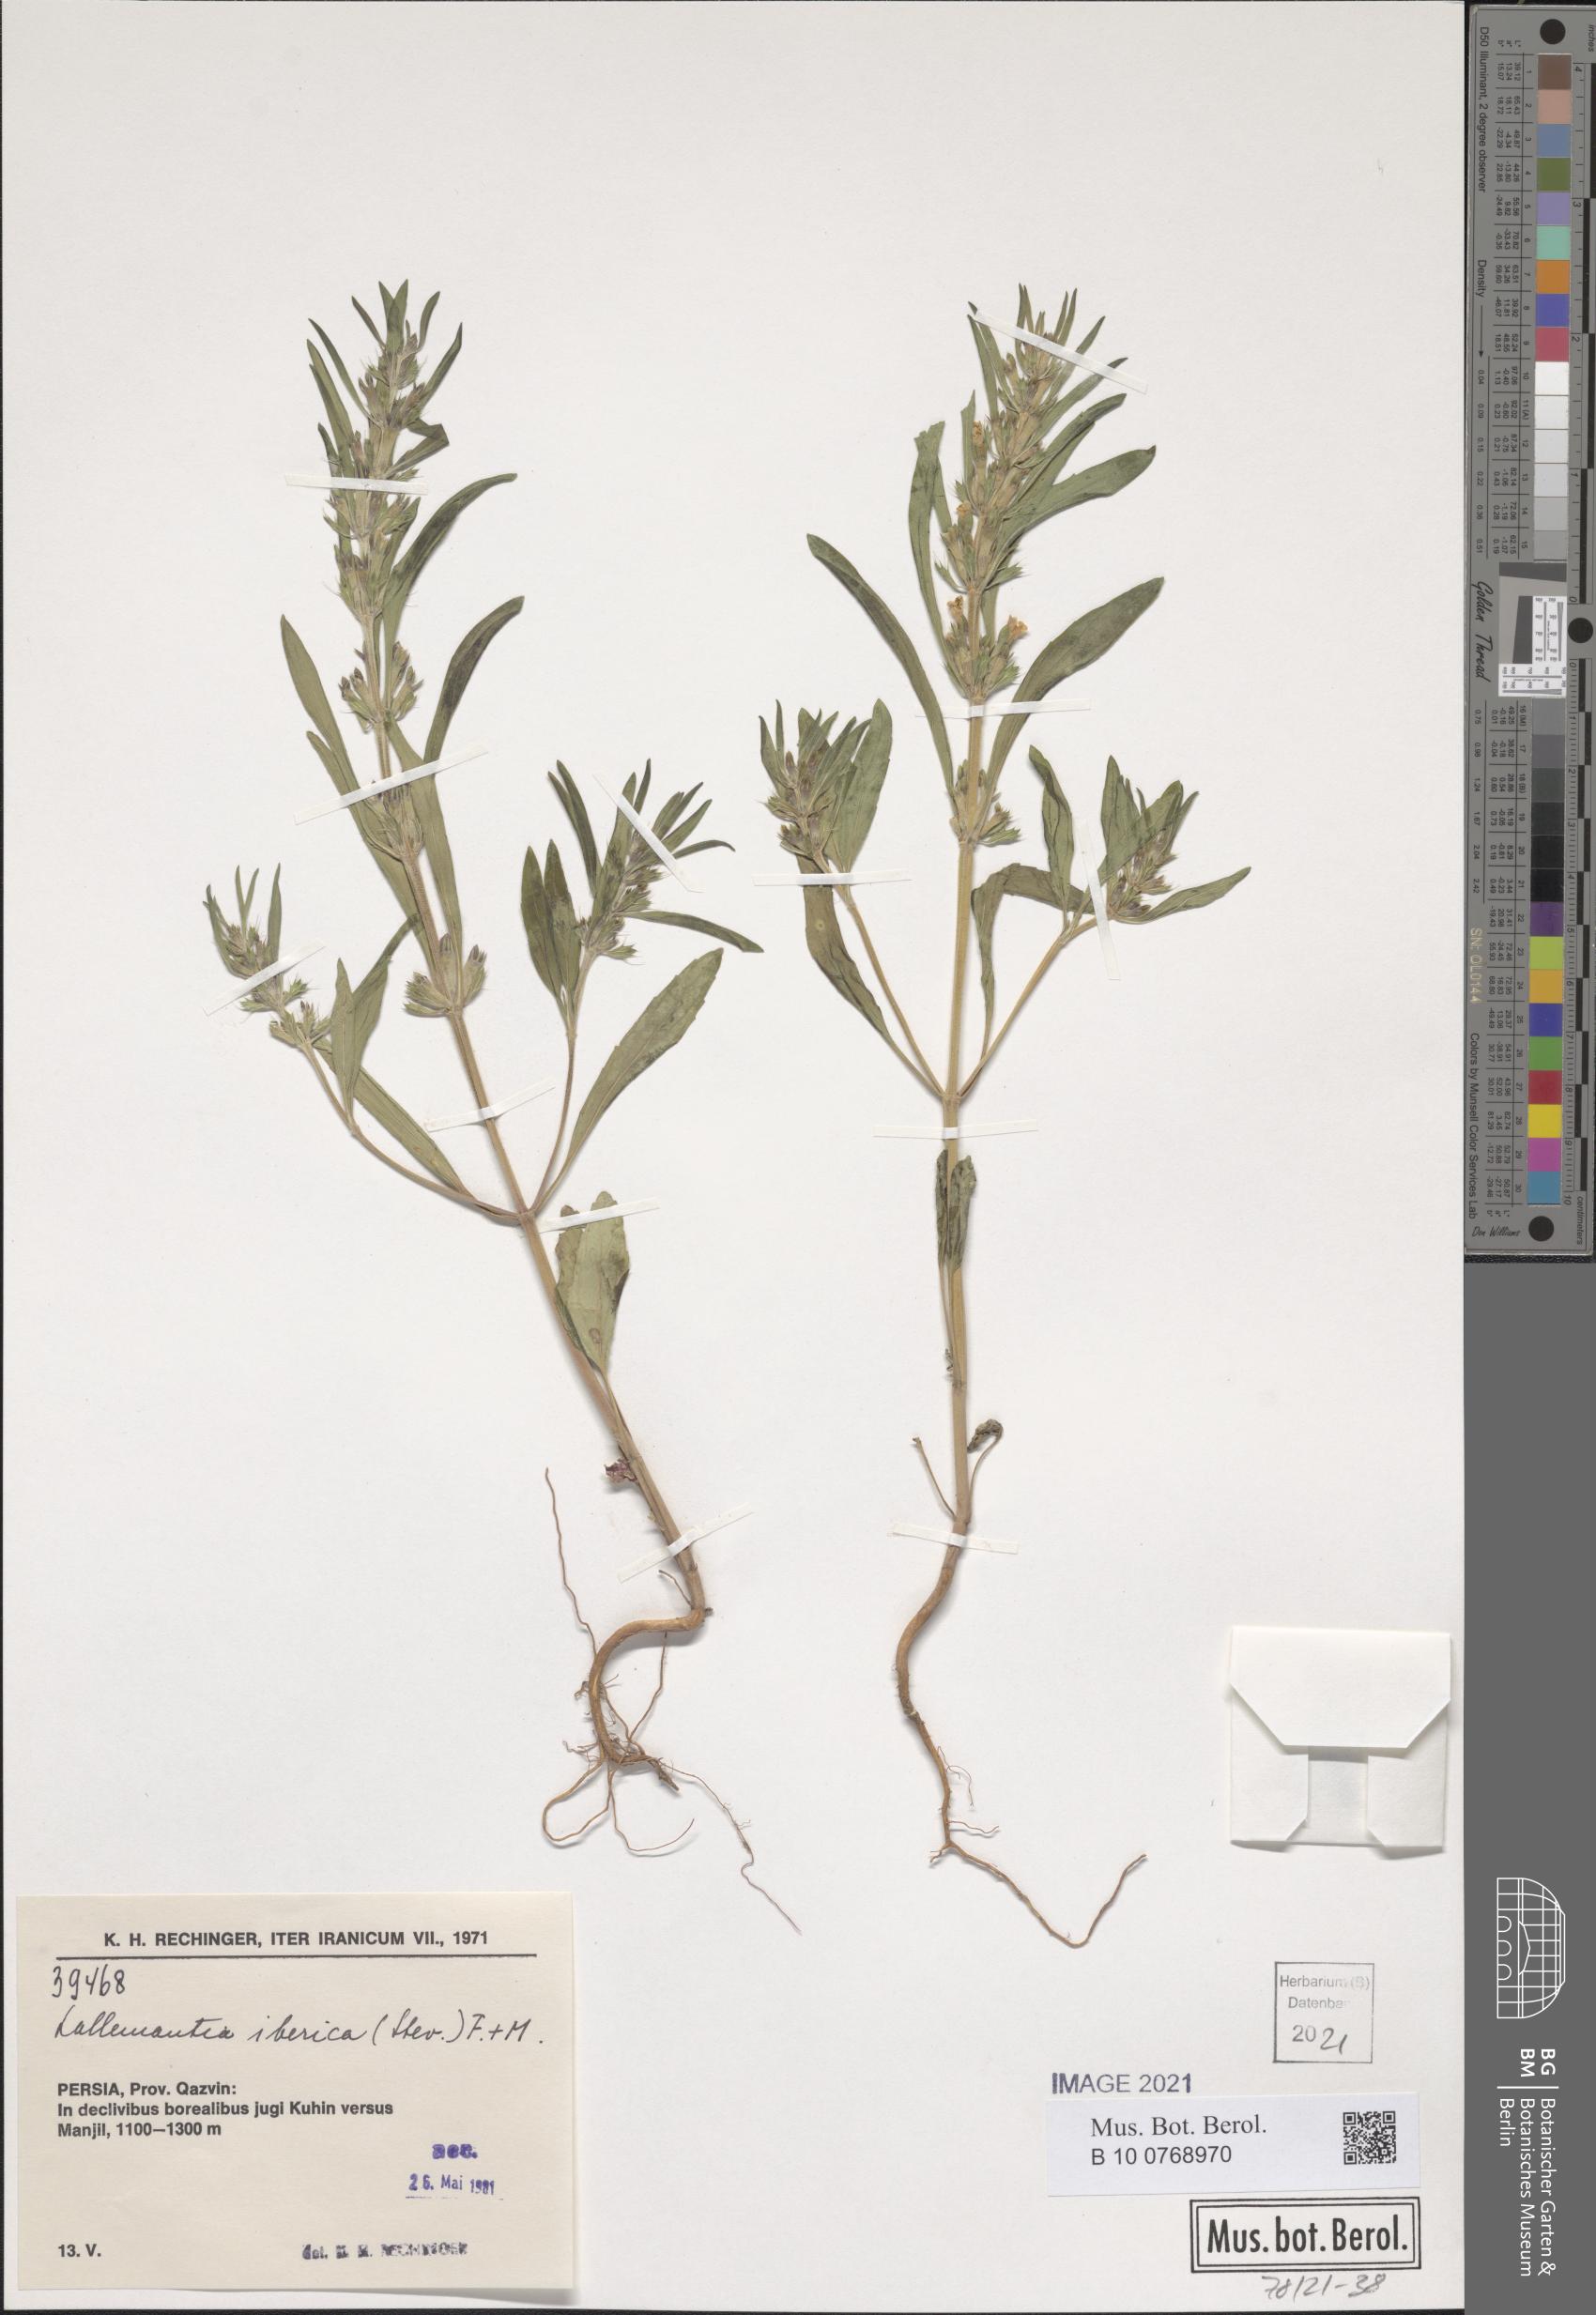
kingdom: Plantae
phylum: Tracheophyta
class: Magnoliopsida
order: Lamiales
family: Lamiaceae
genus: Lallemantia
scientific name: Lallemantia iberica
